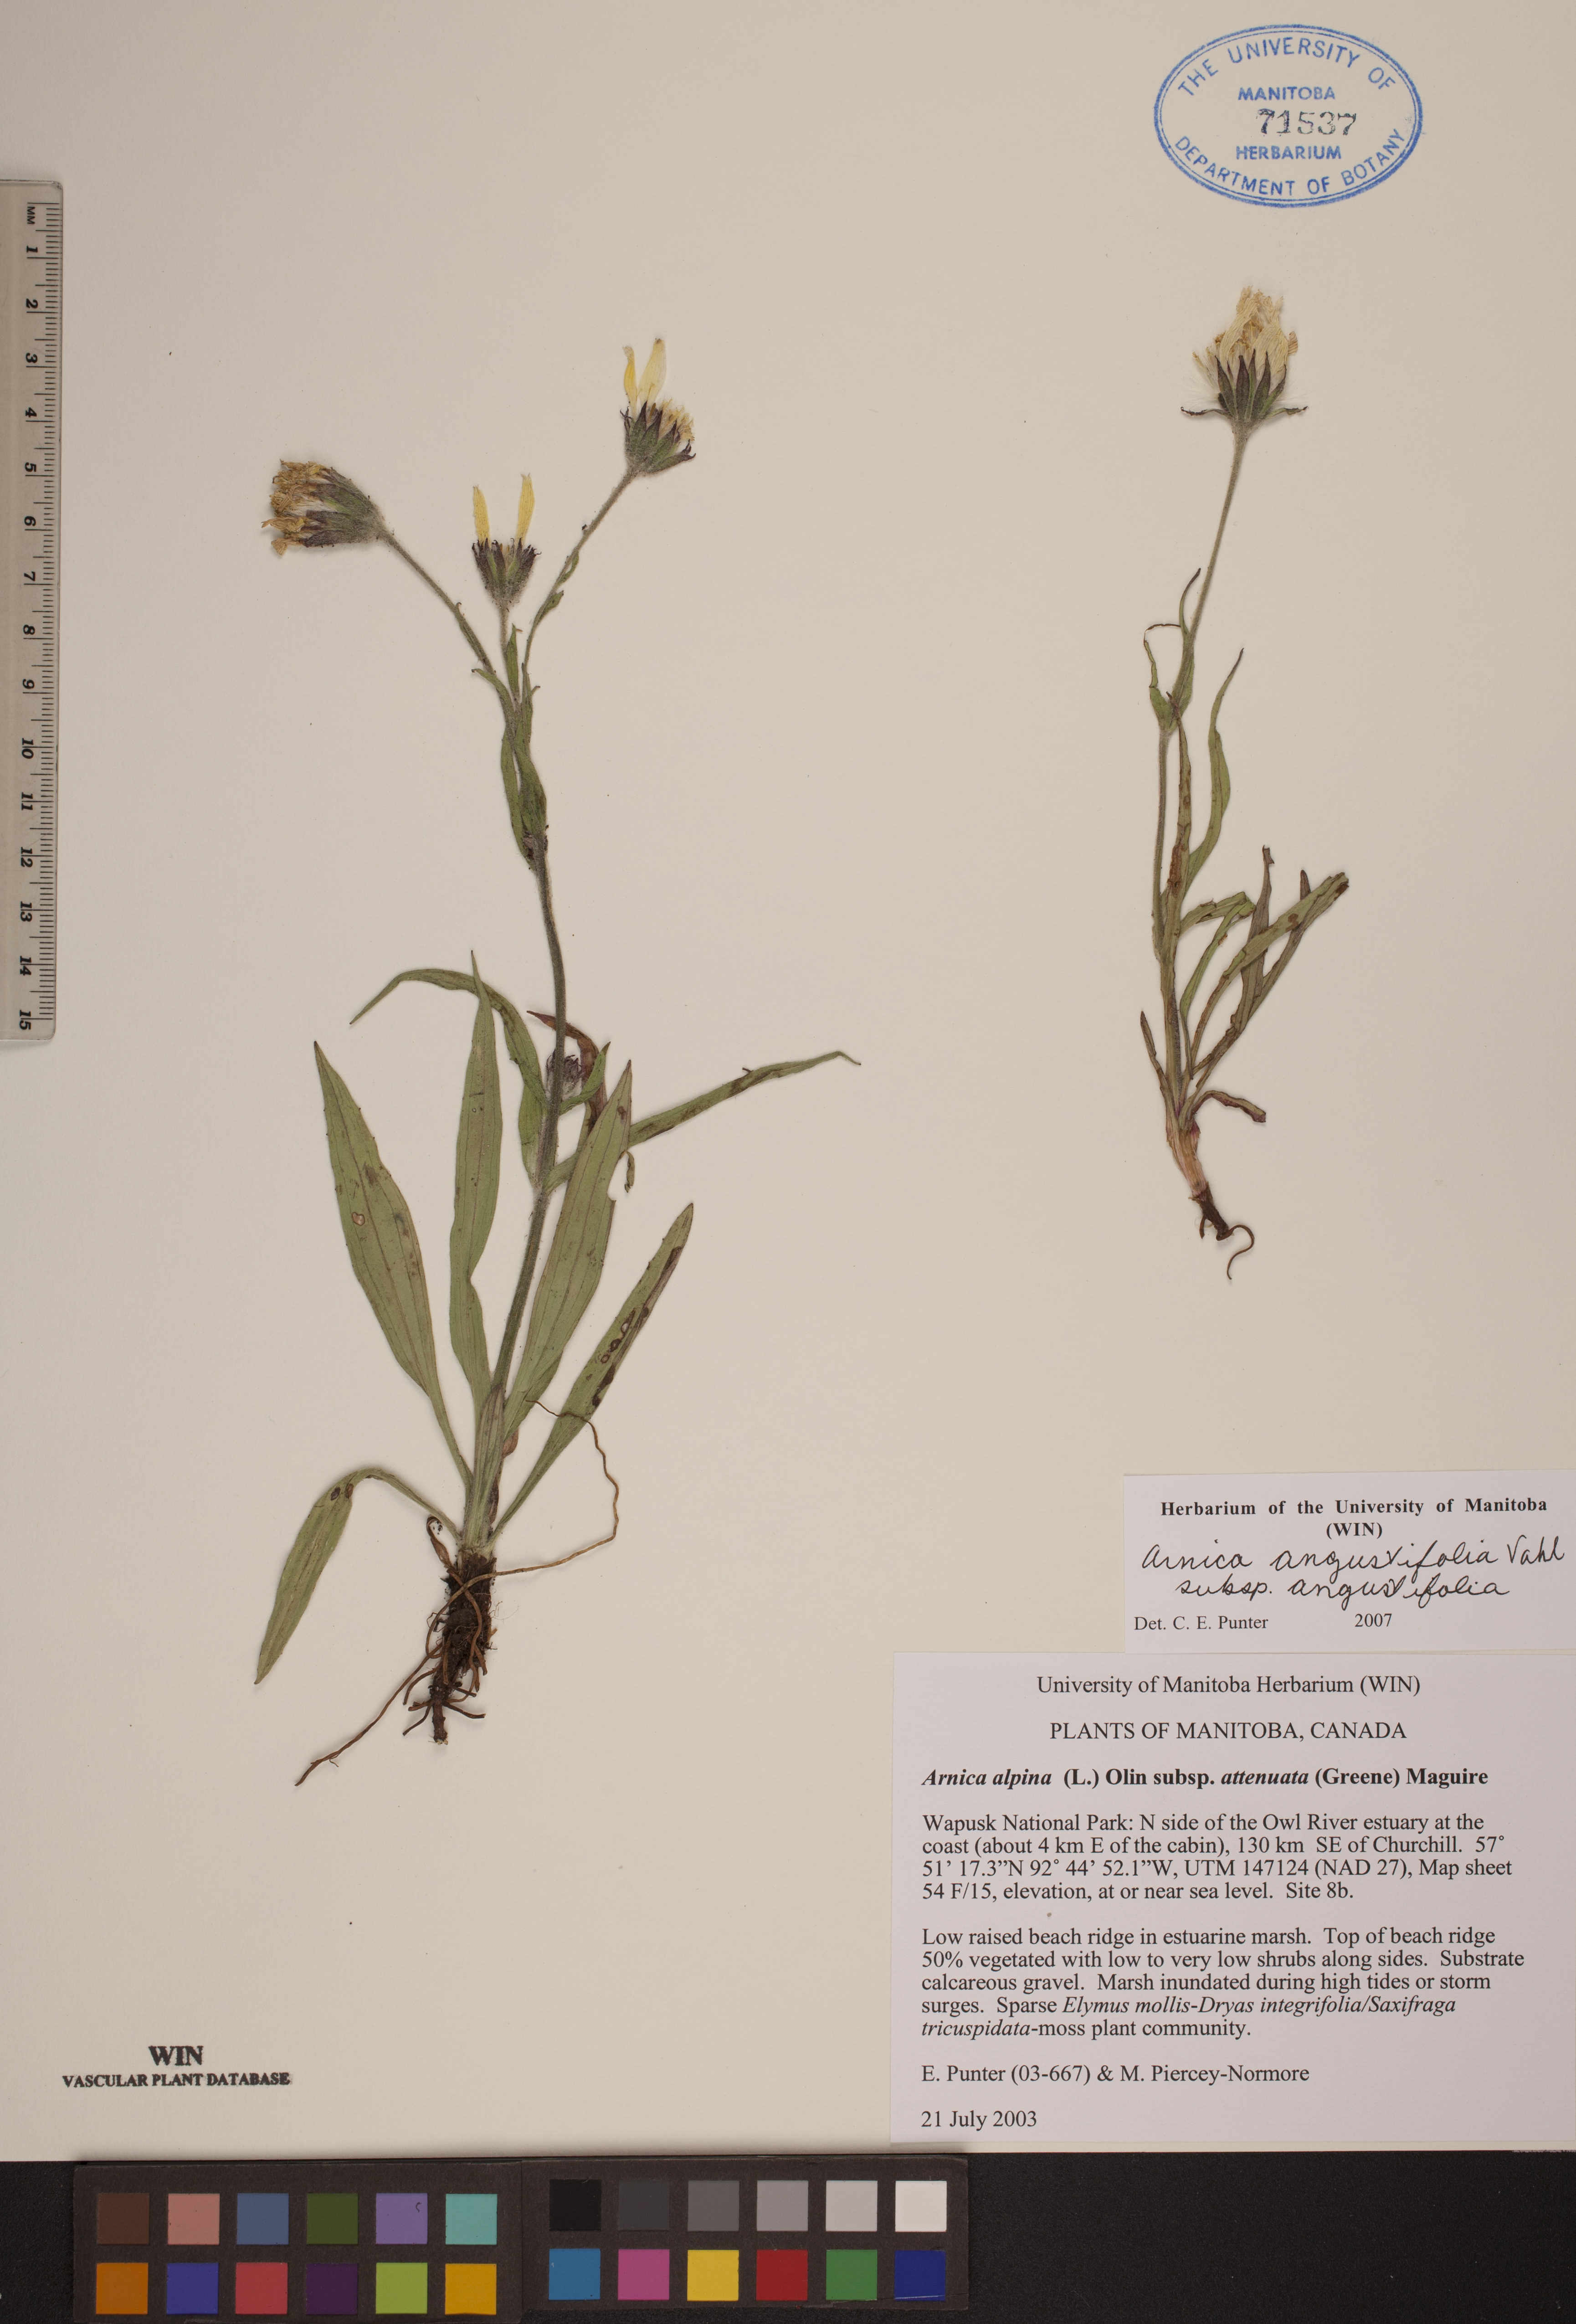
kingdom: Plantae
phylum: Tracheophyta
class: Magnoliopsida
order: Asterales
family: Asteraceae
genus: Arnica
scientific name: Arnica angustifolia
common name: Arctic arnica
